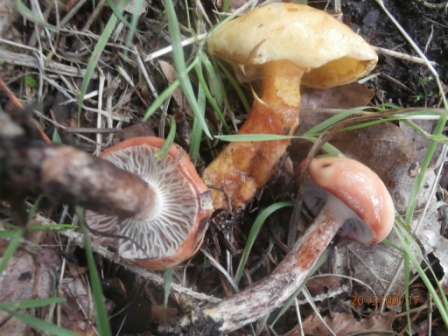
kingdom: Fungi
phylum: Basidiomycota
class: Agaricomycetes
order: Boletales
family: Gomphidiaceae
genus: Gomphidius
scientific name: Gomphidius maculatus
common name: rødmende slimslør
